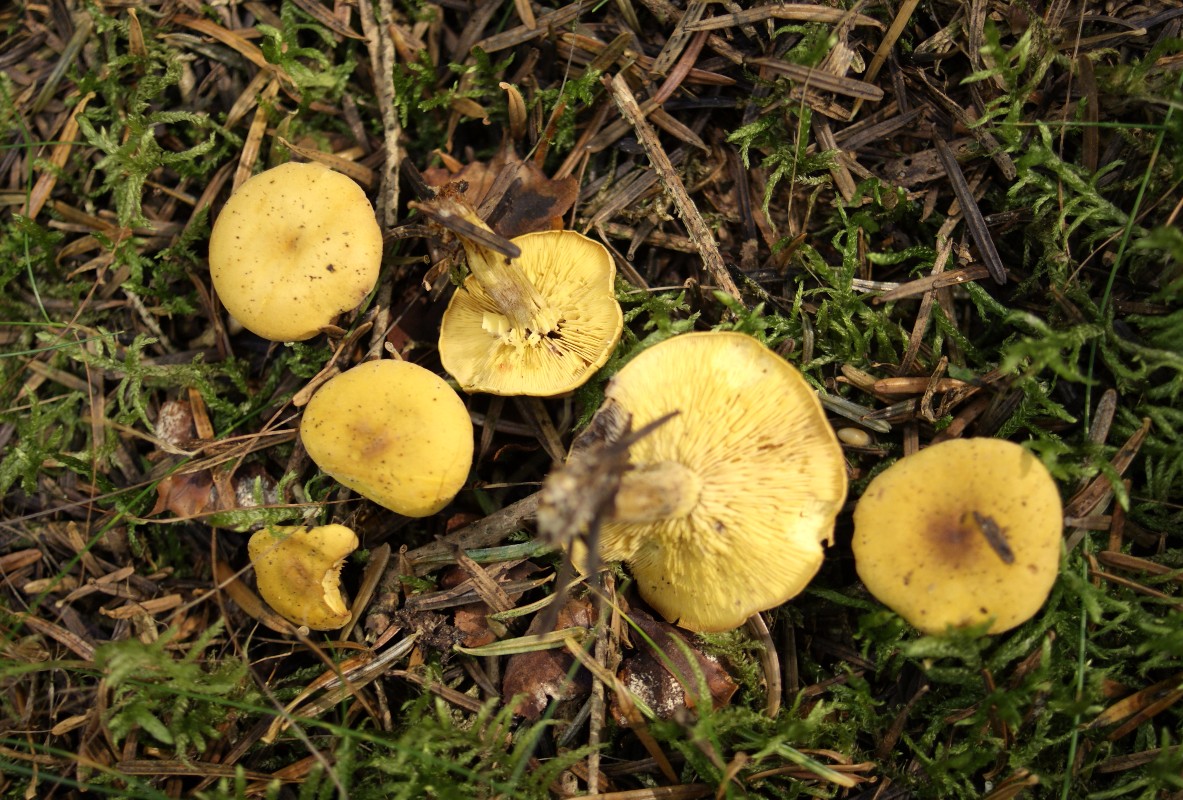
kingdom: Fungi
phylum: Basidiomycota
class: Agaricomycetes
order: Agaricales
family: Lyophyllaceae
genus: Calocybe
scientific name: Calocybe chrysenteron
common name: brandgul fagerhat
